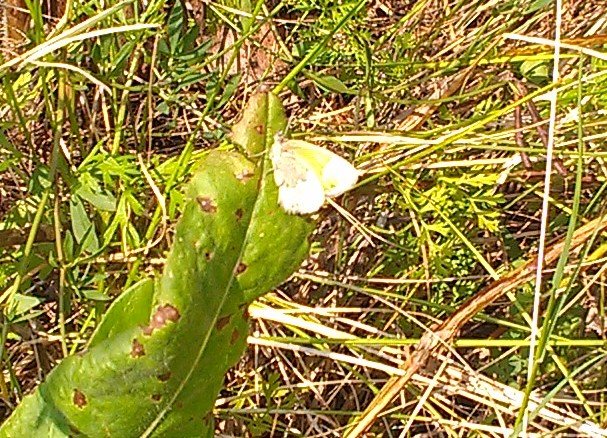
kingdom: Animalia
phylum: Arthropoda
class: Insecta
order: Lepidoptera
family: Nymphalidae
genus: Coenonympha
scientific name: Coenonympha tullia
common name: Large Heath
